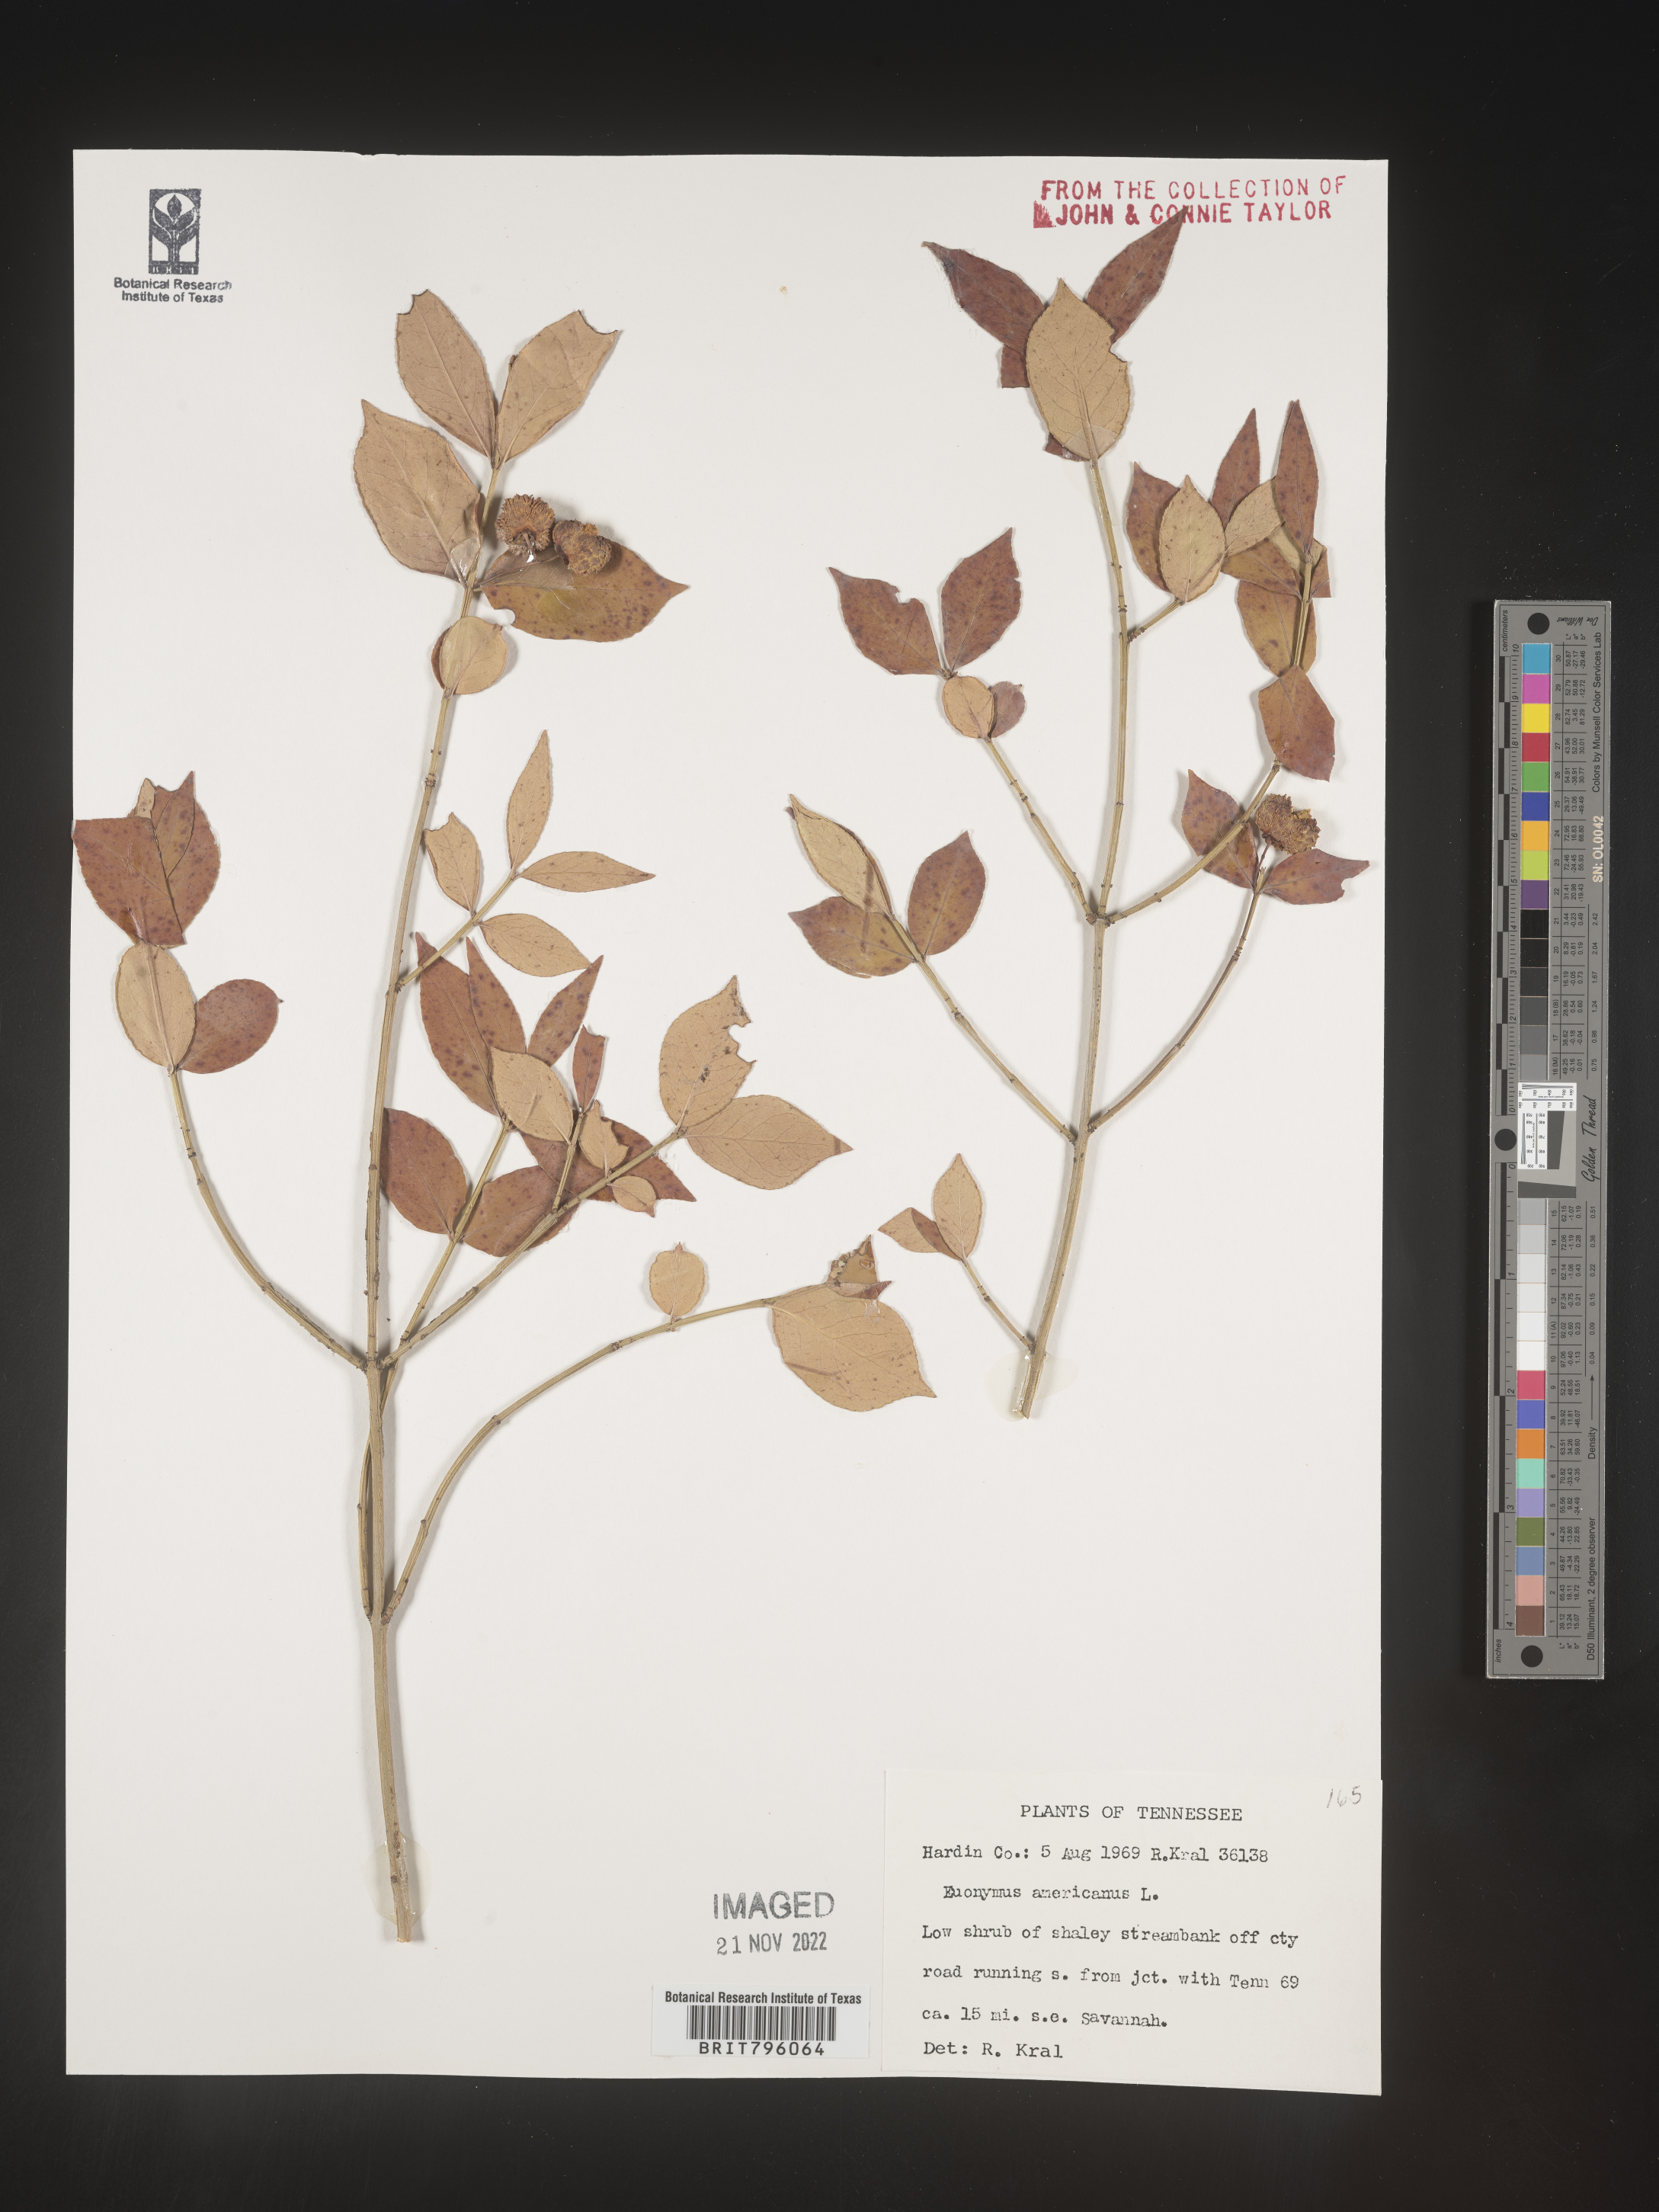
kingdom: Plantae
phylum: Tracheophyta
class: Magnoliopsida
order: Celastrales
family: Celastraceae
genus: Euonymus
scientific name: Euonymus americanus
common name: Bursting-heart
